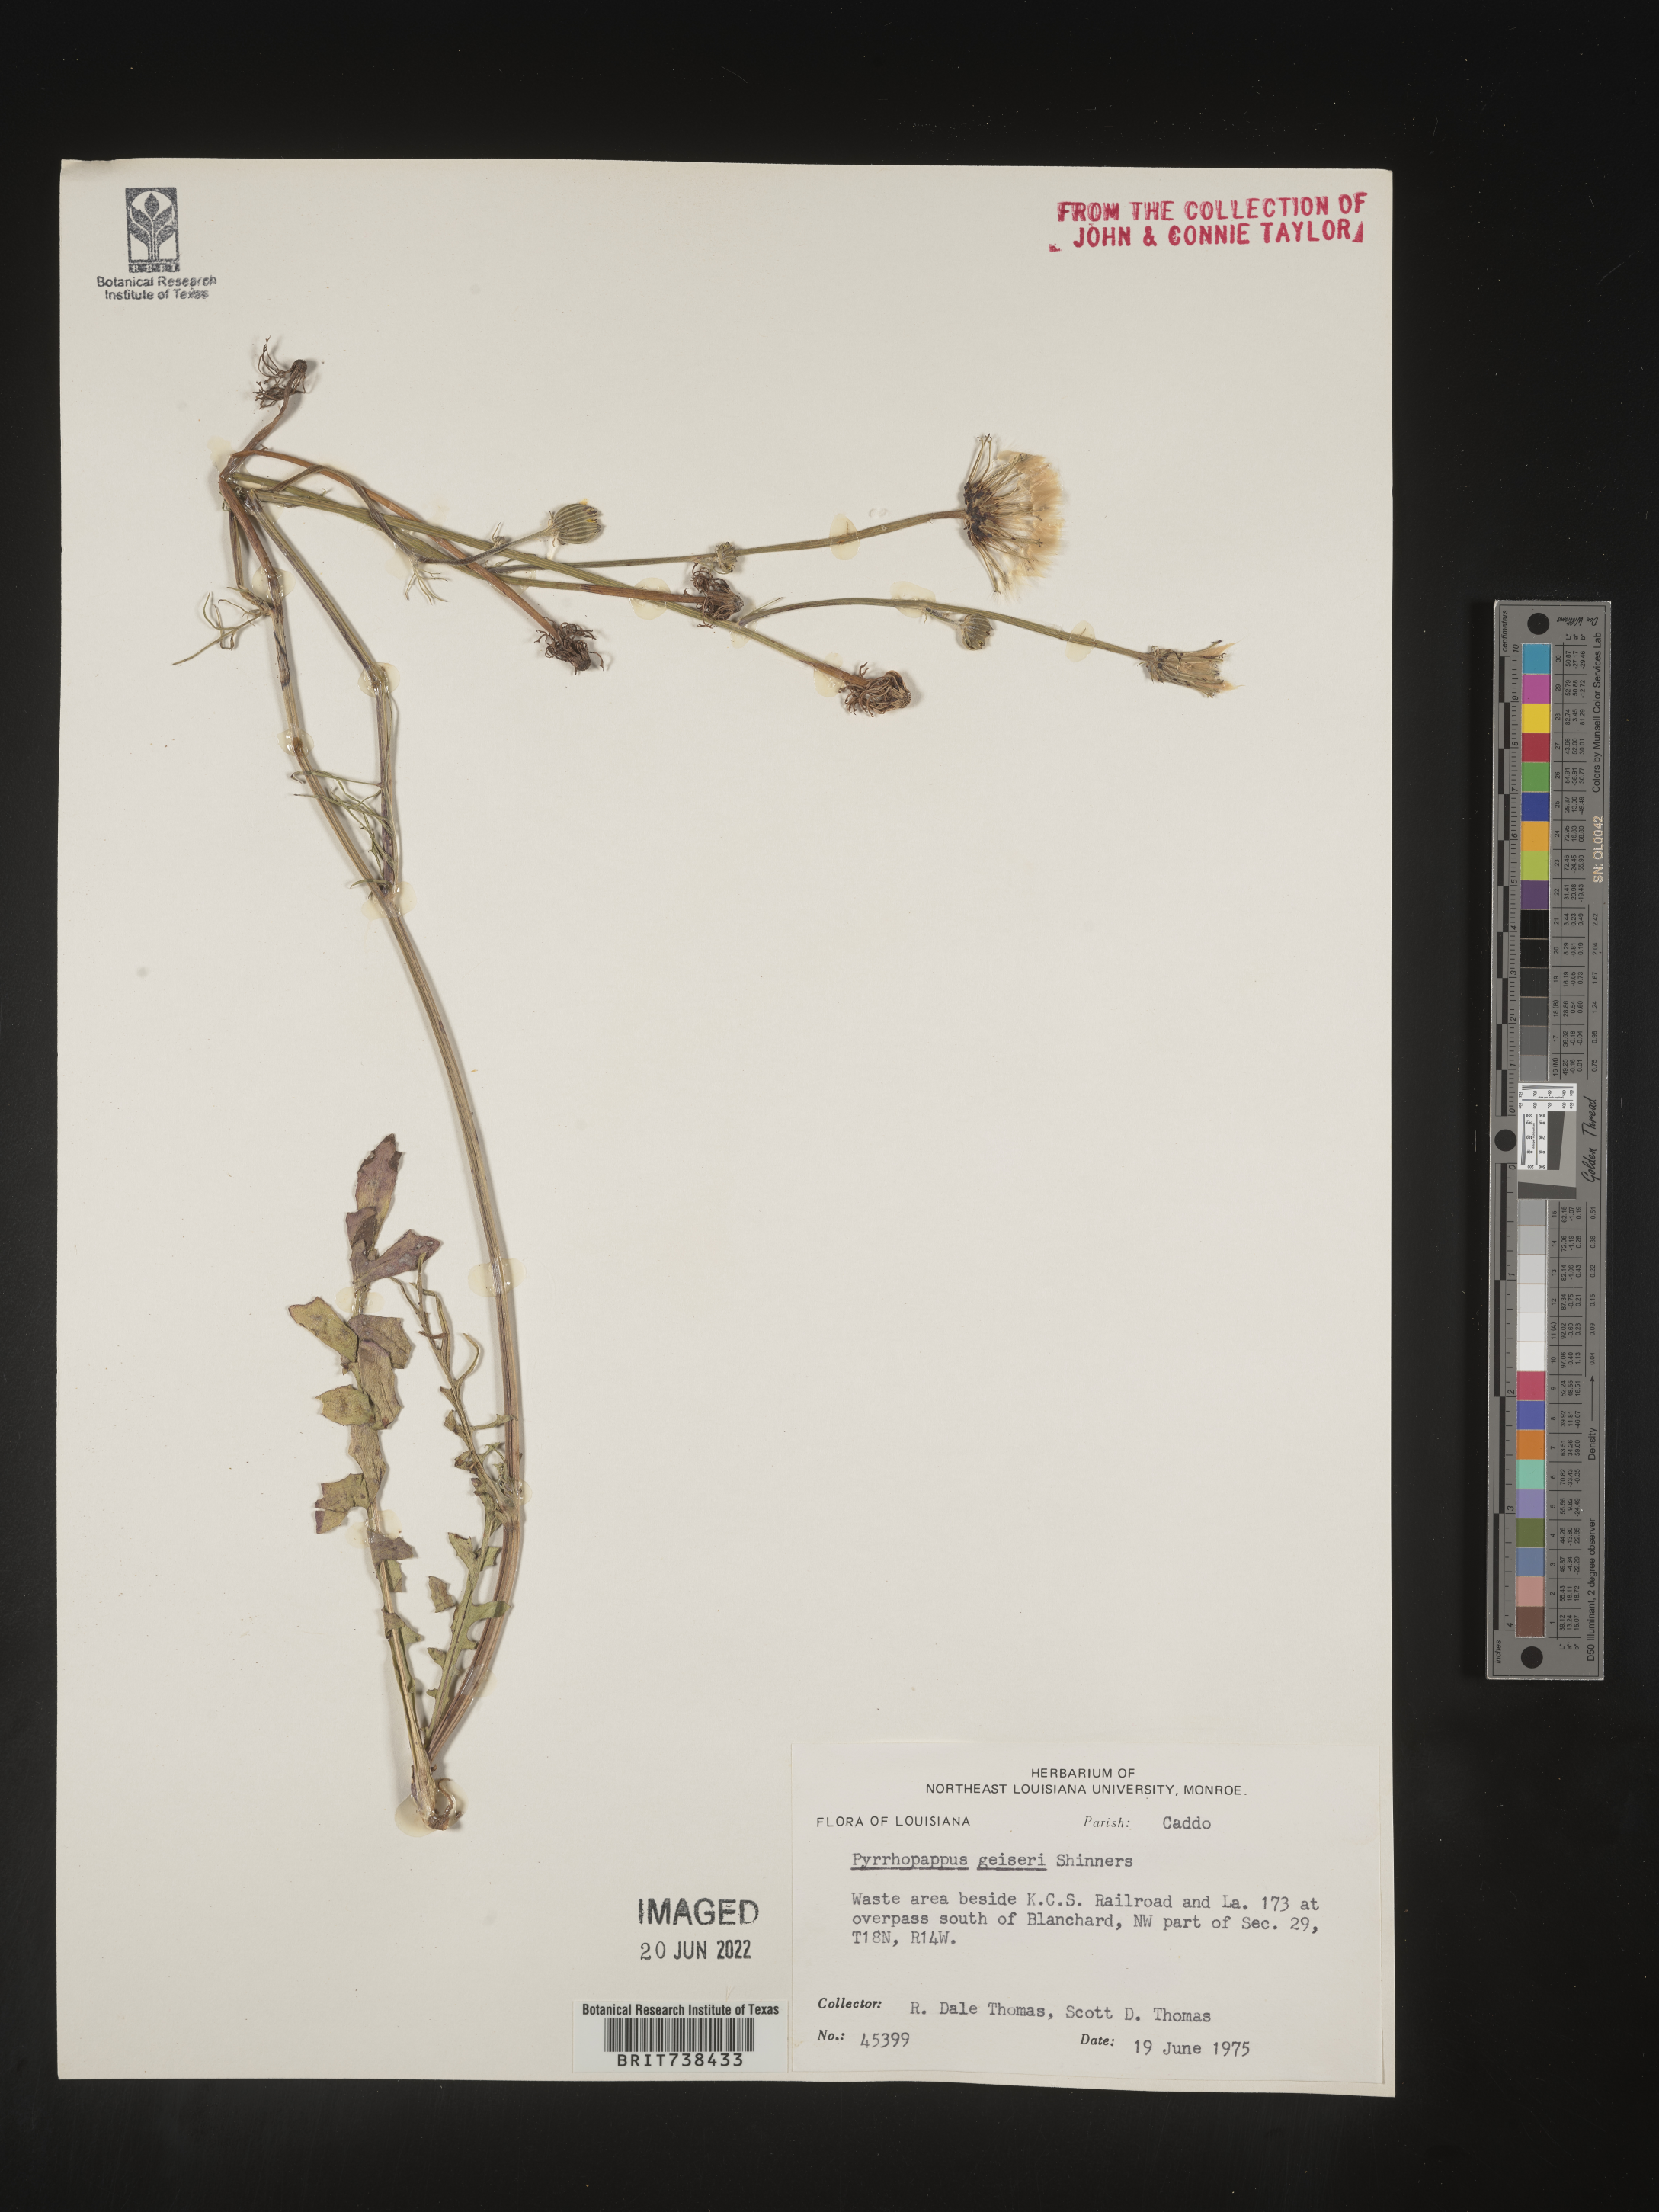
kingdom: Plantae
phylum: Tracheophyta
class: Magnoliopsida
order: Asterales
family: Asteraceae
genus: Pyrrhopappus
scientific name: Pyrrhopappus pauciflorus
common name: Texas false dandelion
